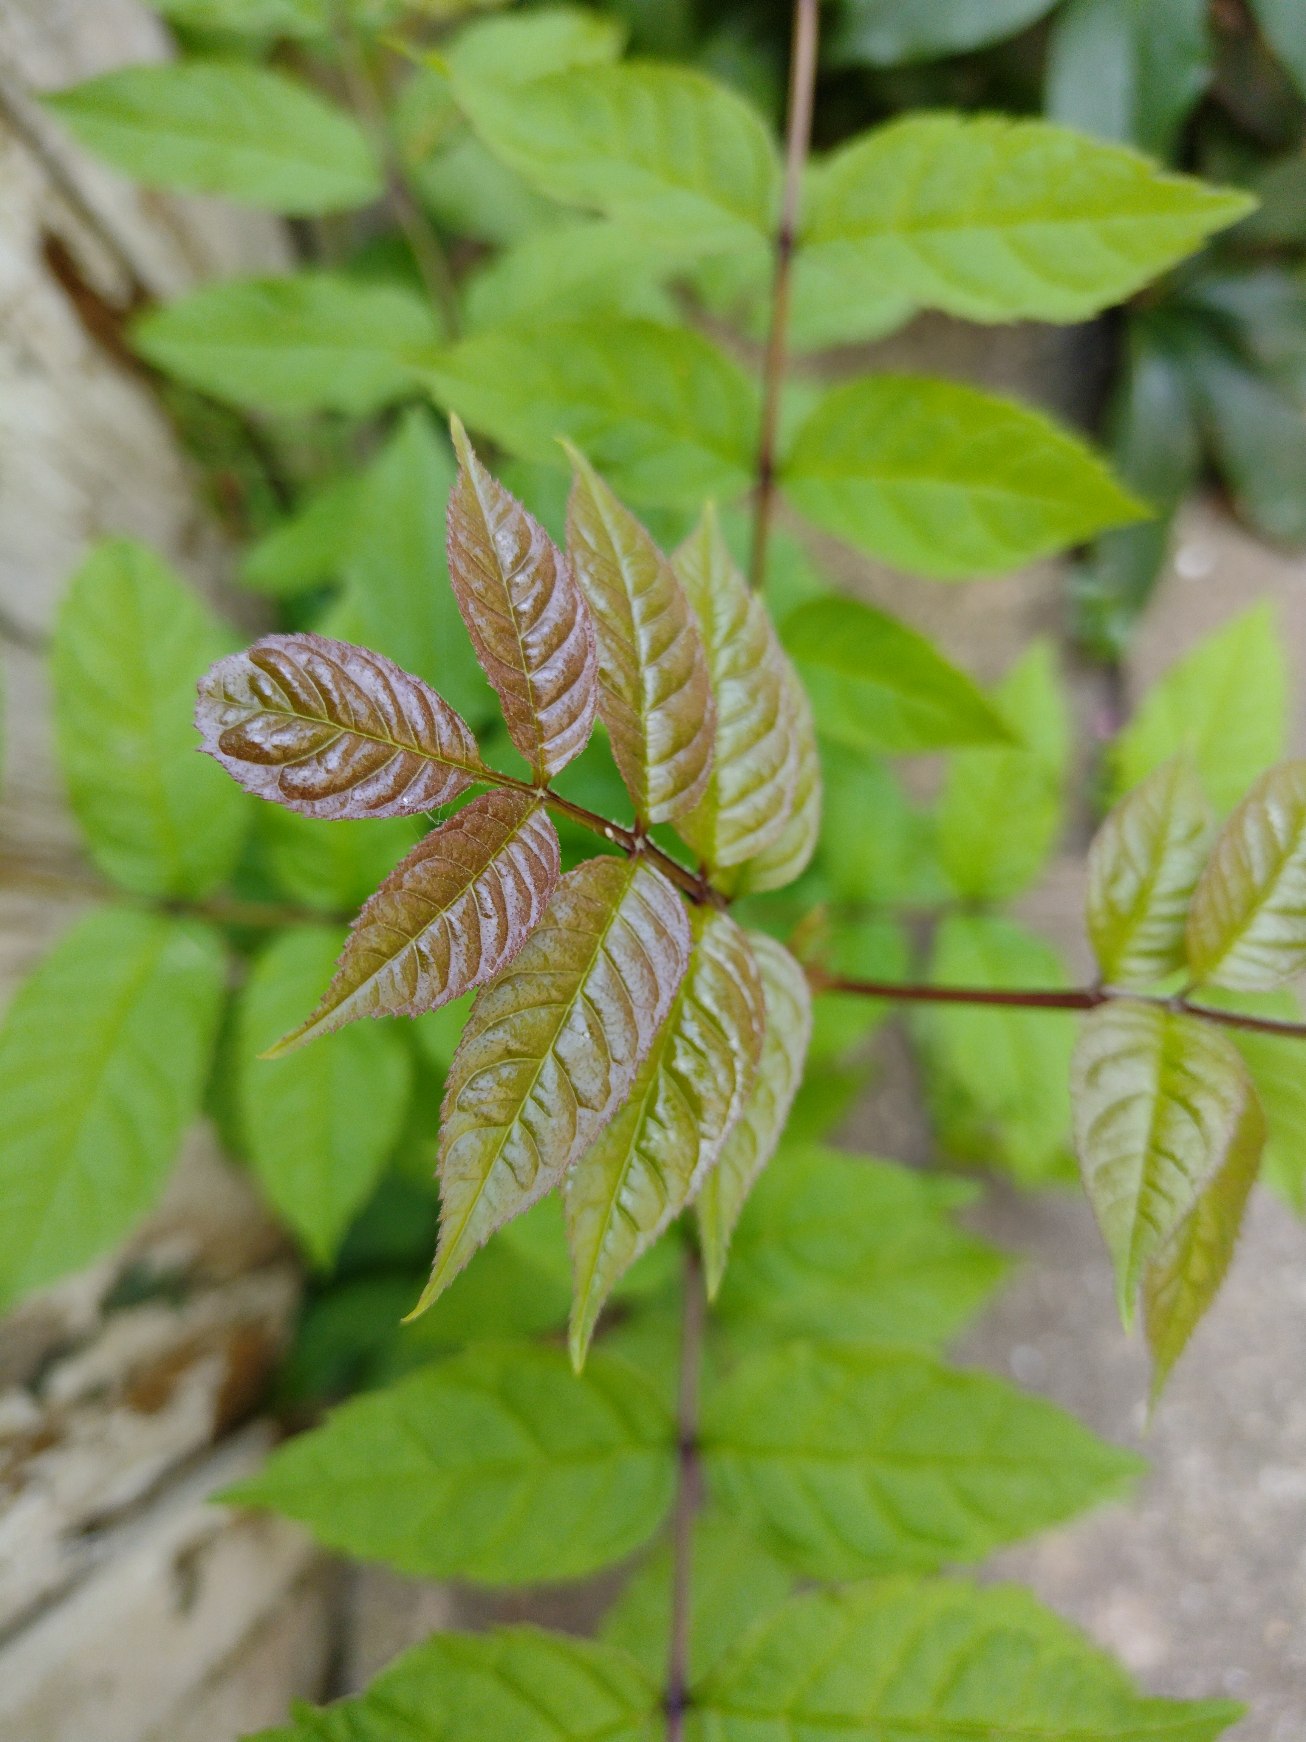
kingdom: Plantae
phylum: Tracheophyta
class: Magnoliopsida
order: Lamiales
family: Oleaceae
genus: Fraxinus
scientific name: Fraxinus excelsior
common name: Ask
